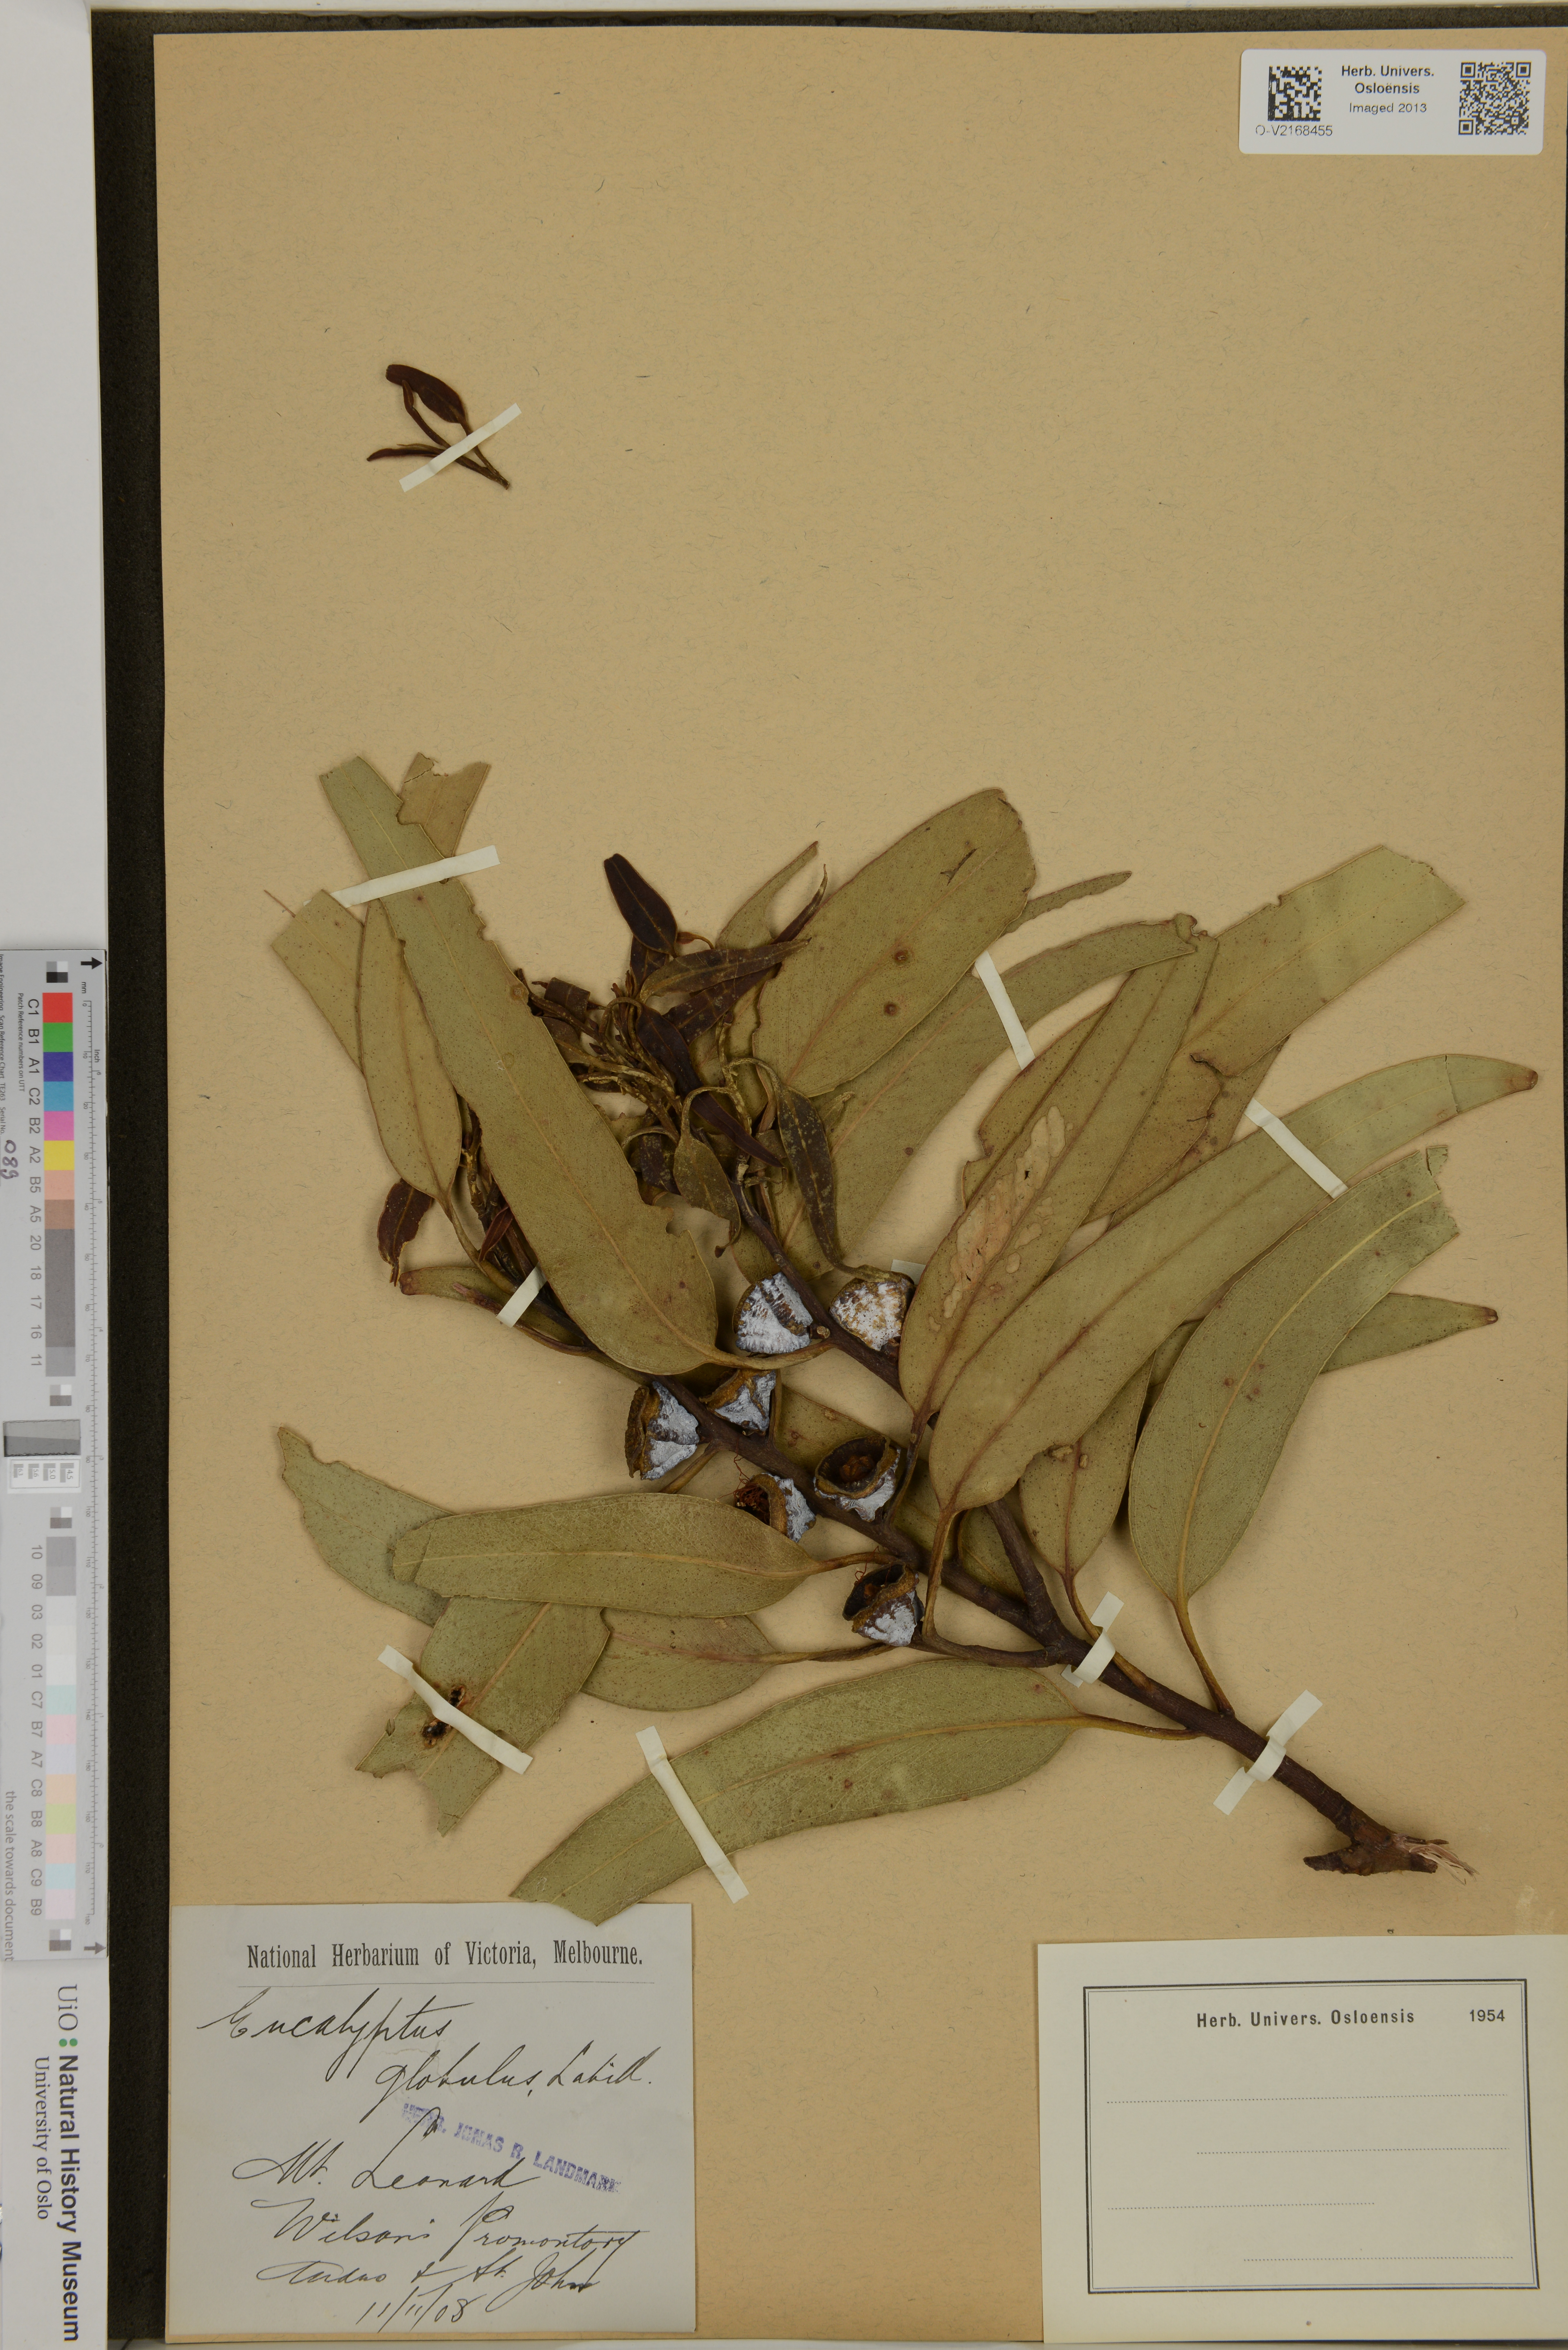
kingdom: Plantae
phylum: Tracheophyta
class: Magnoliopsida
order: Myrtales
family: Myrtaceae
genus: Eucalyptus
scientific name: Eucalyptus globulus
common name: Southern blue-gum
